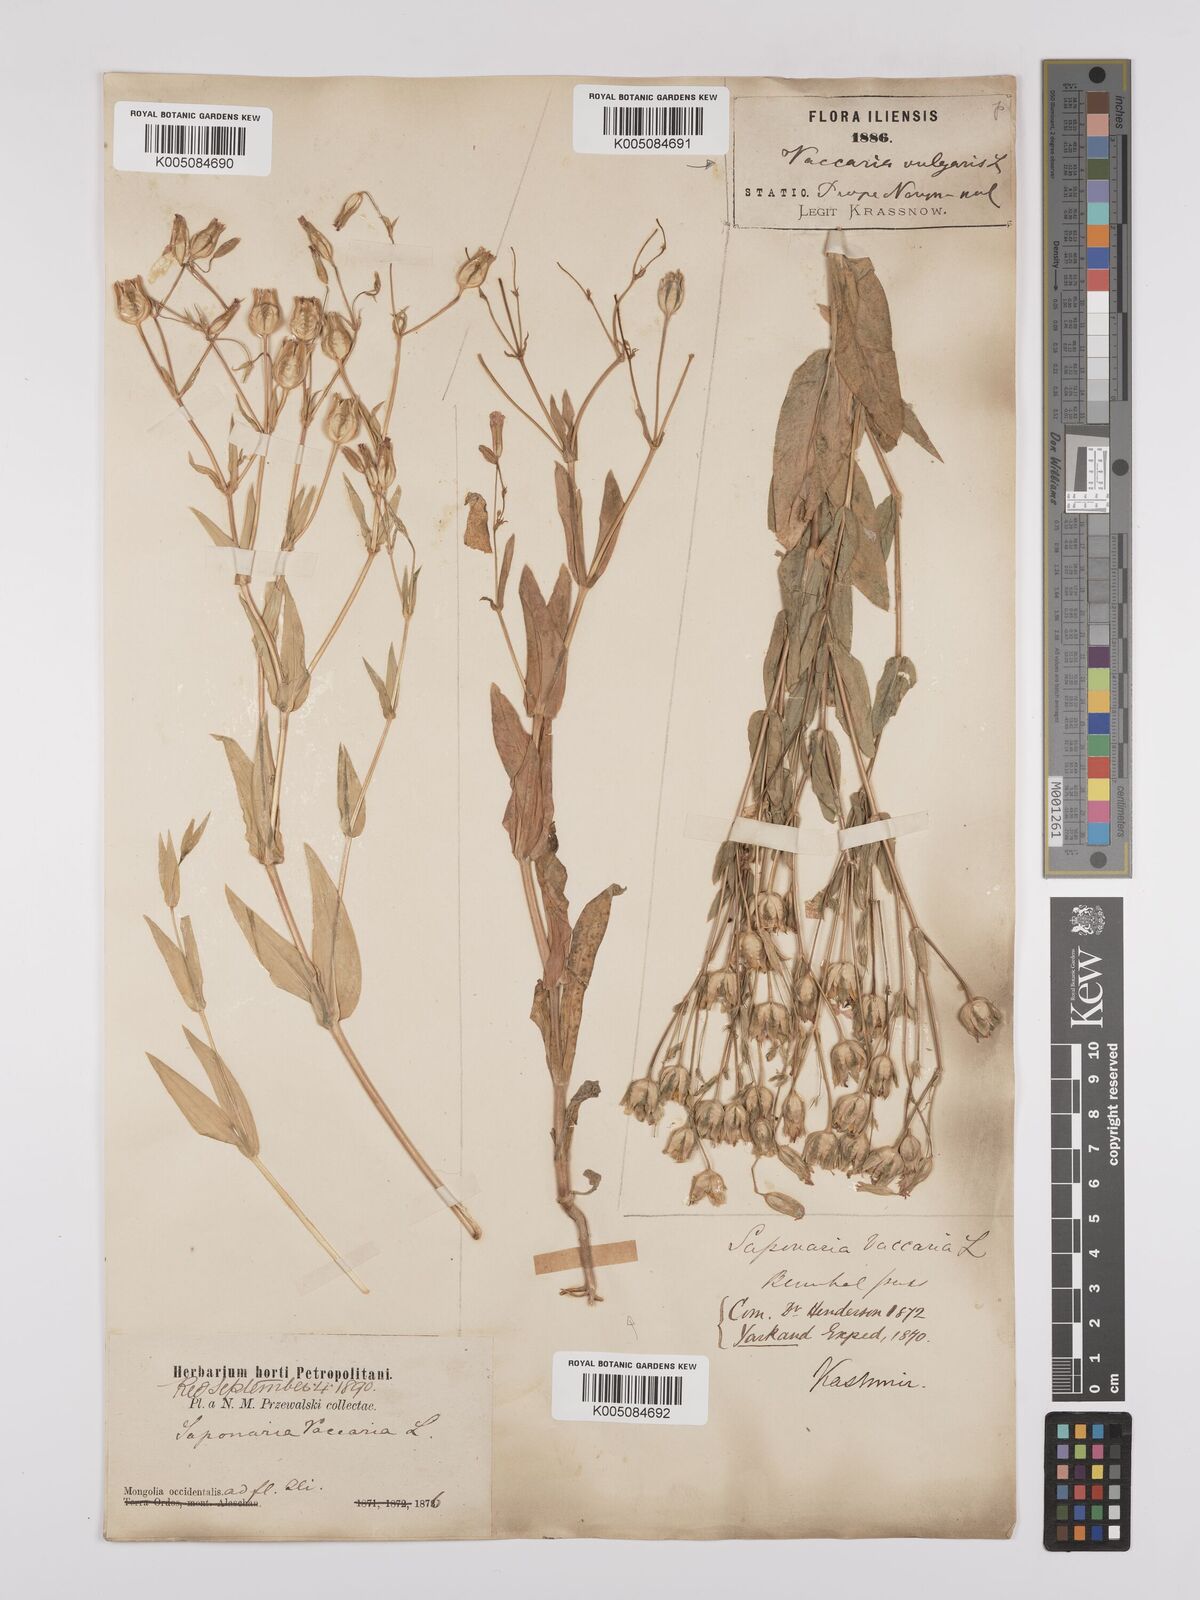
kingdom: Plantae
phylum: Tracheophyta
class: Magnoliopsida
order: Caryophyllales
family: Caryophyllaceae
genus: Gypsophila
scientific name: Gypsophila vaccaria
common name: Cow soapwort
